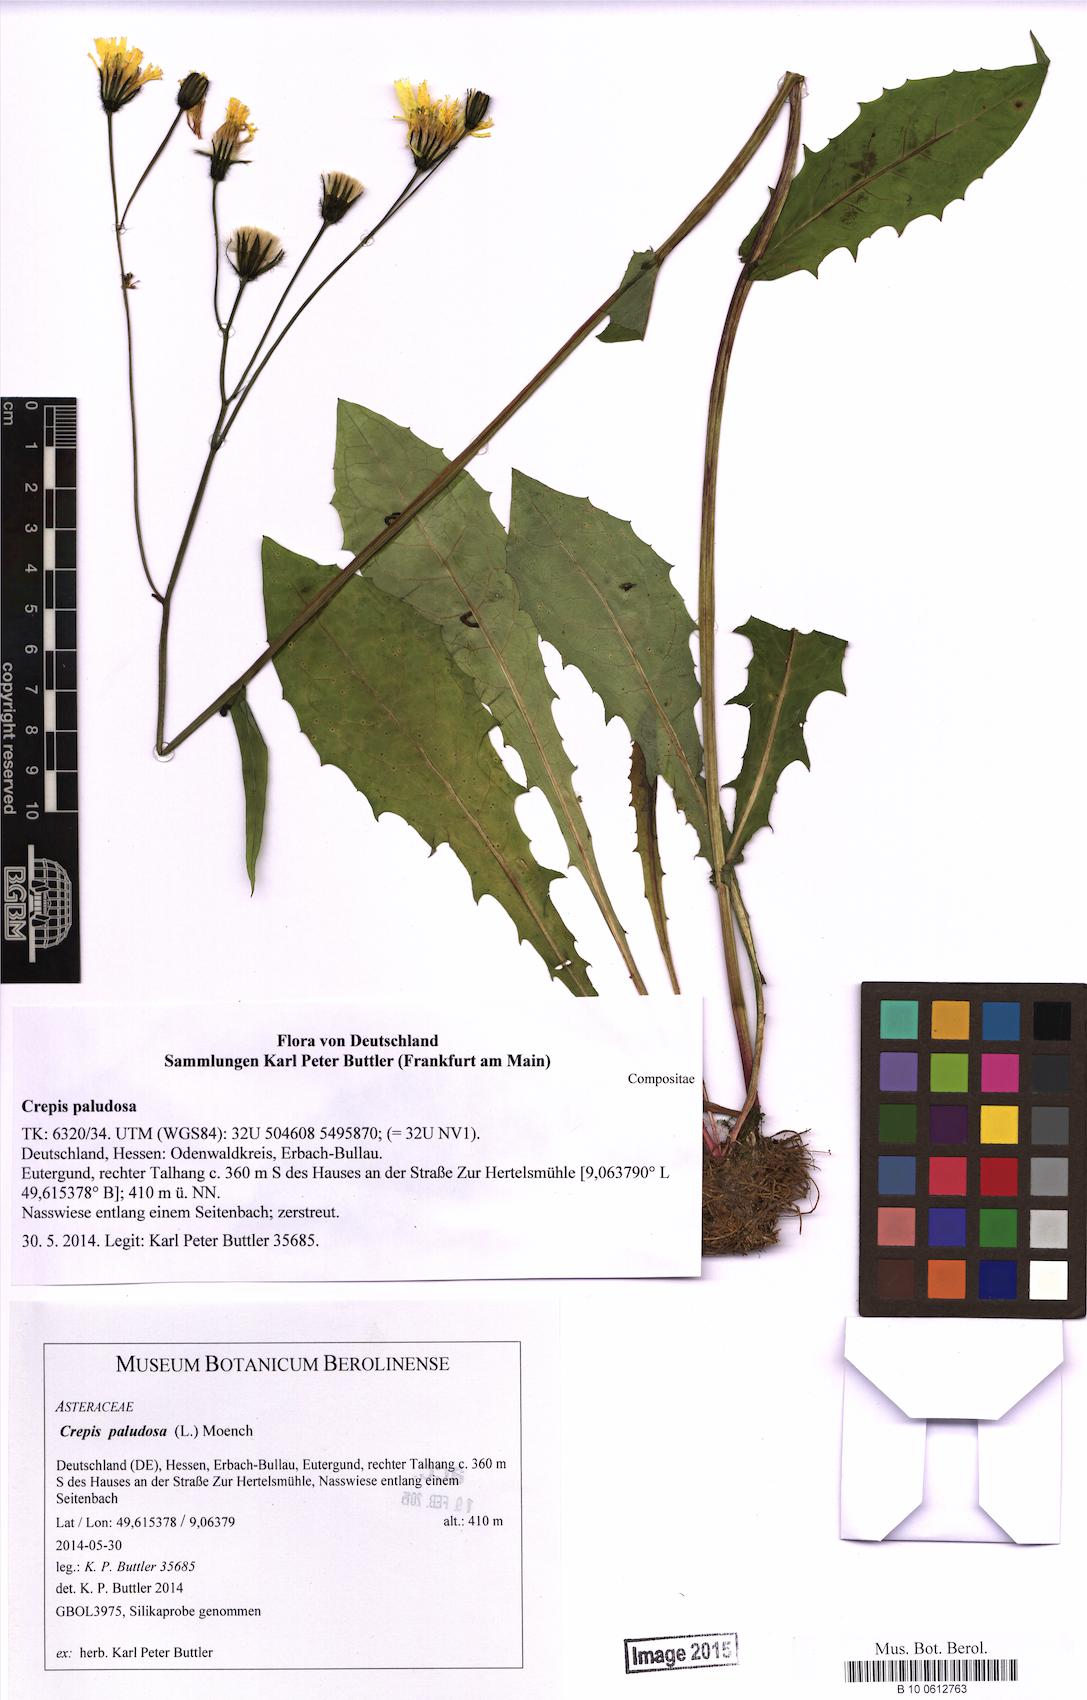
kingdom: Plantae
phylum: Tracheophyta
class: Magnoliopsida
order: Asterales
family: Asteraceae
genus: Crepis
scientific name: Crepis paludosa
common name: Marsh hawk's-beard
